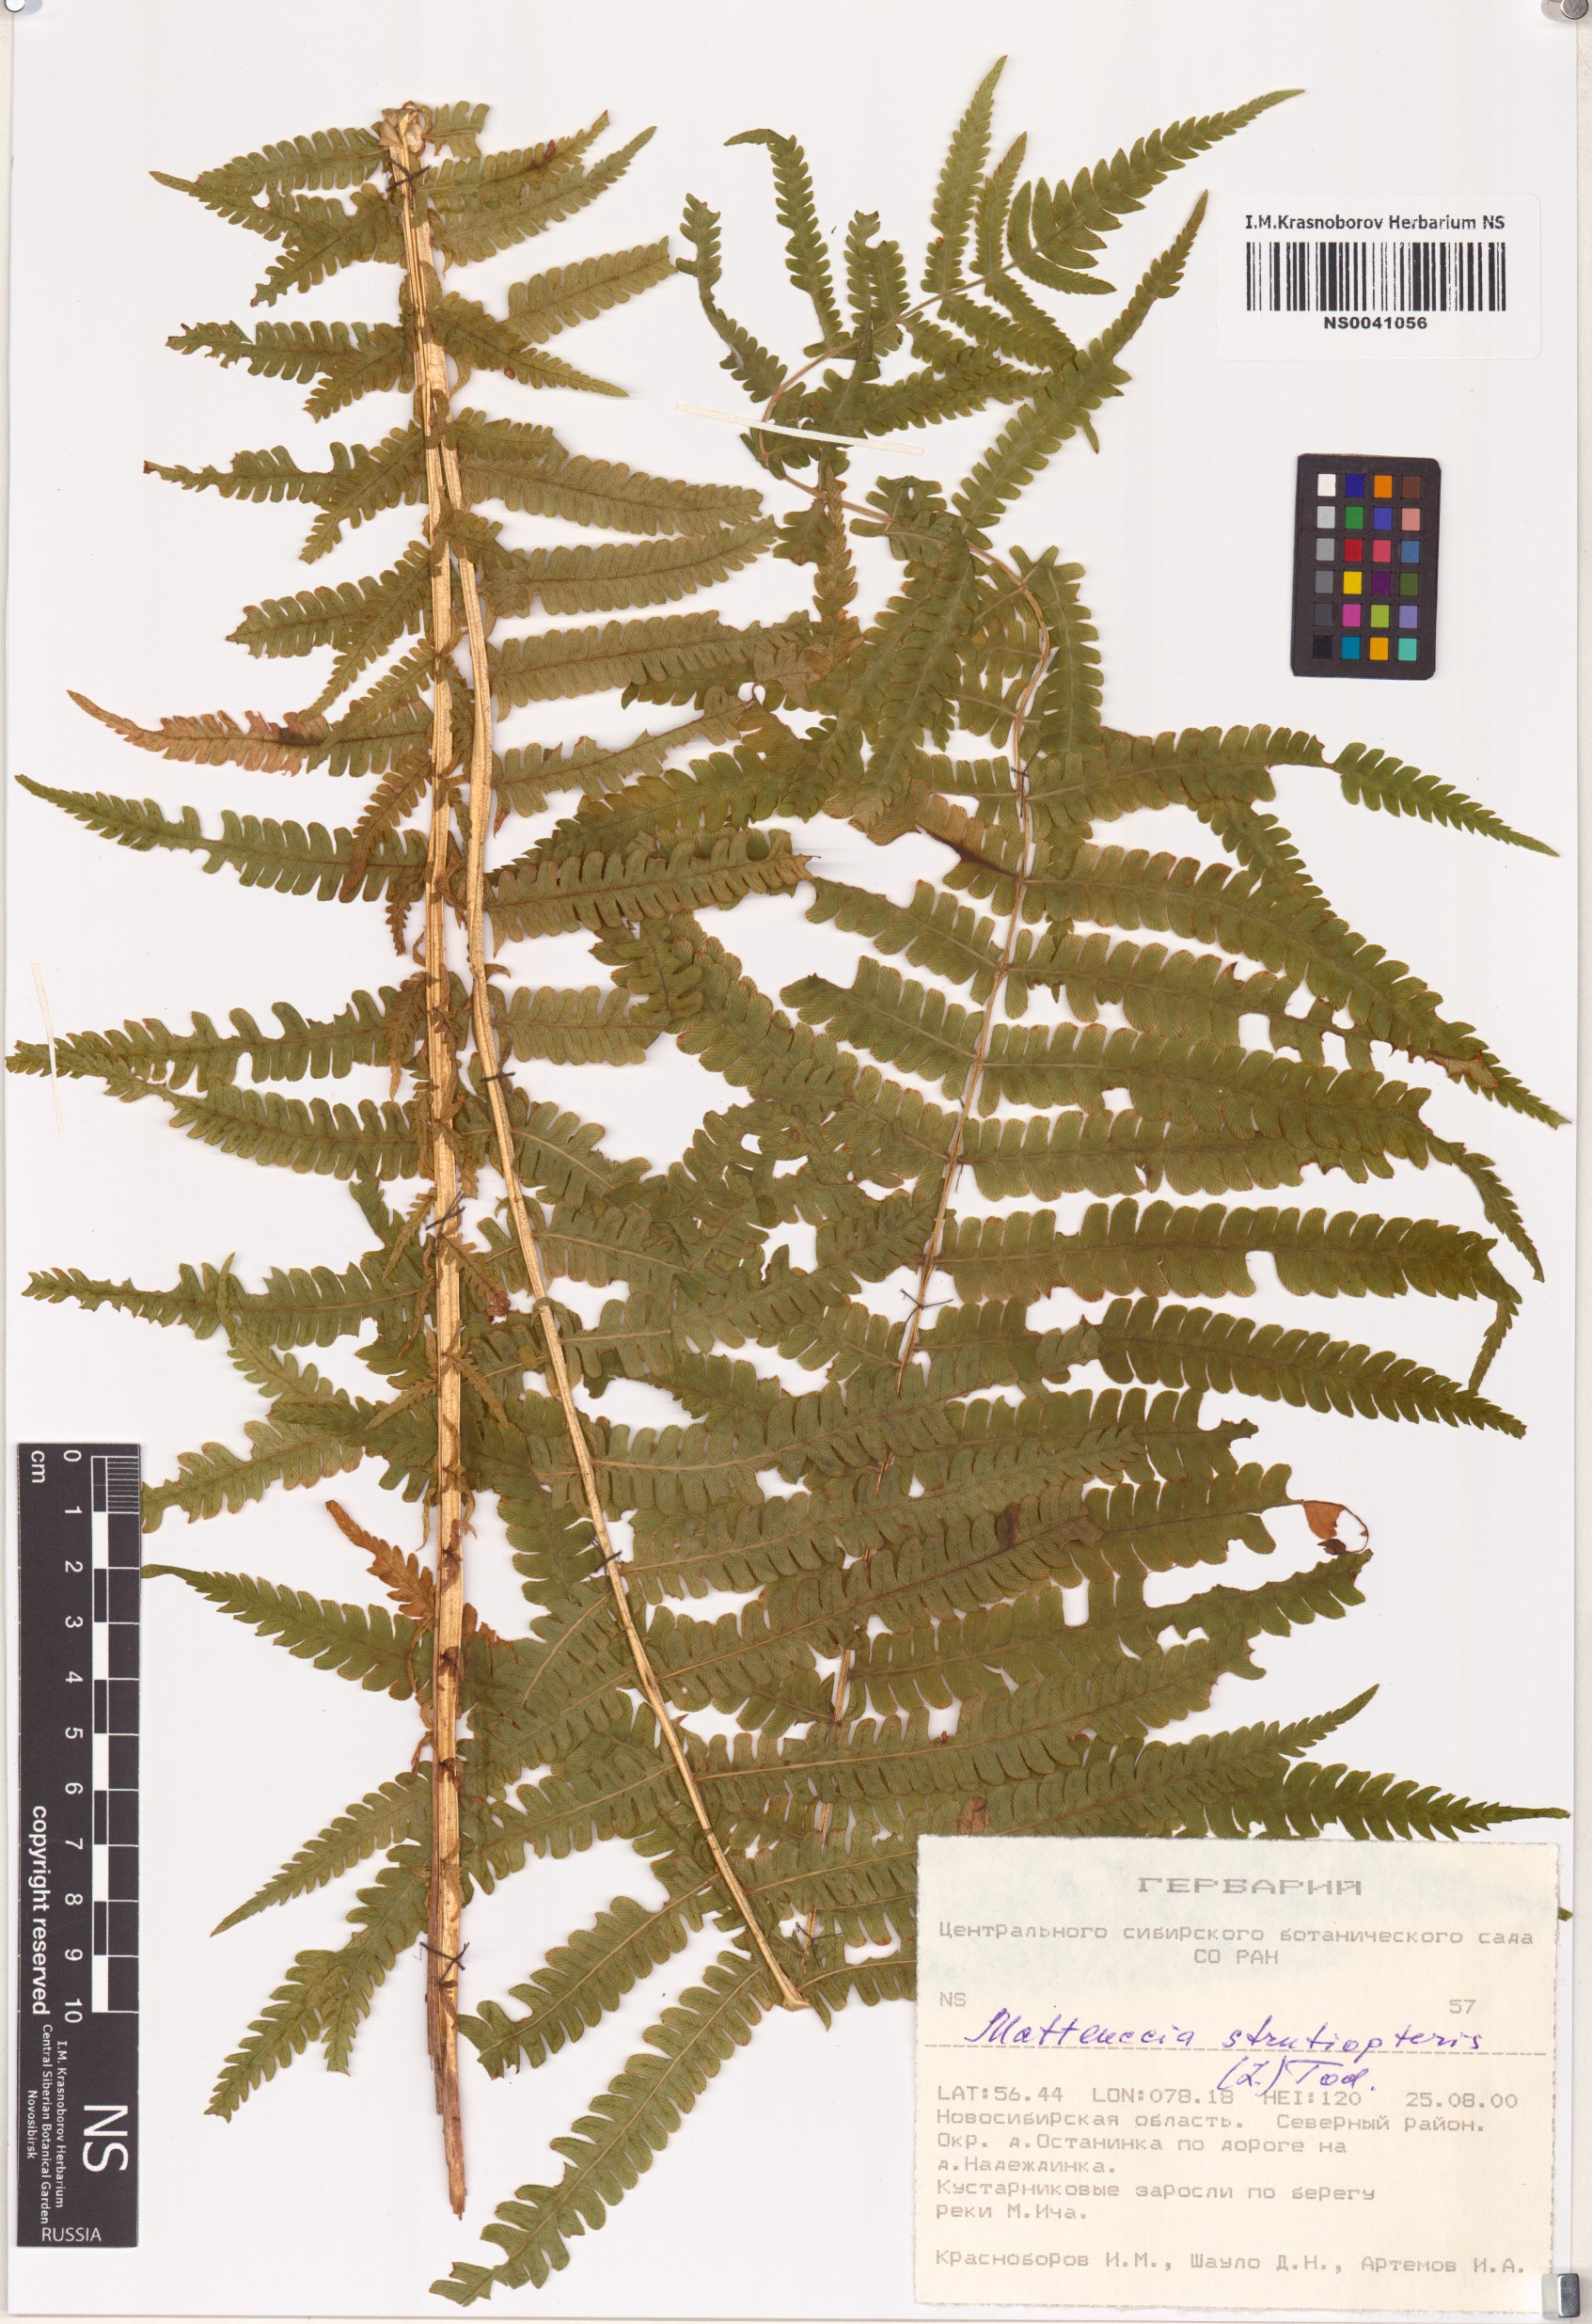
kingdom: Plantae
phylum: Tracheophyta
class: Polypodiopsida
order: Polypodiales
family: Onocleaceae
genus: Matteuccia
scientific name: Matteuccia struthiopteris
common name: Ostrich fern
